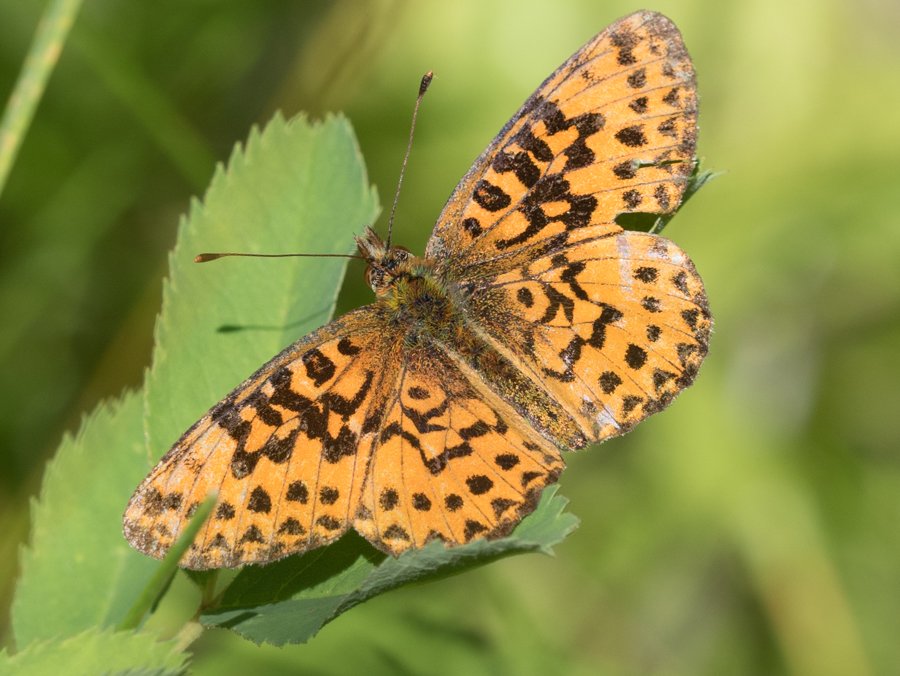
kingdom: Animalia
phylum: Arthropoda
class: Insecta
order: Lepidoptera
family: Nymphalidae
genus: Boloria
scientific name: Boloria chariclea
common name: Arctic Fritillary
